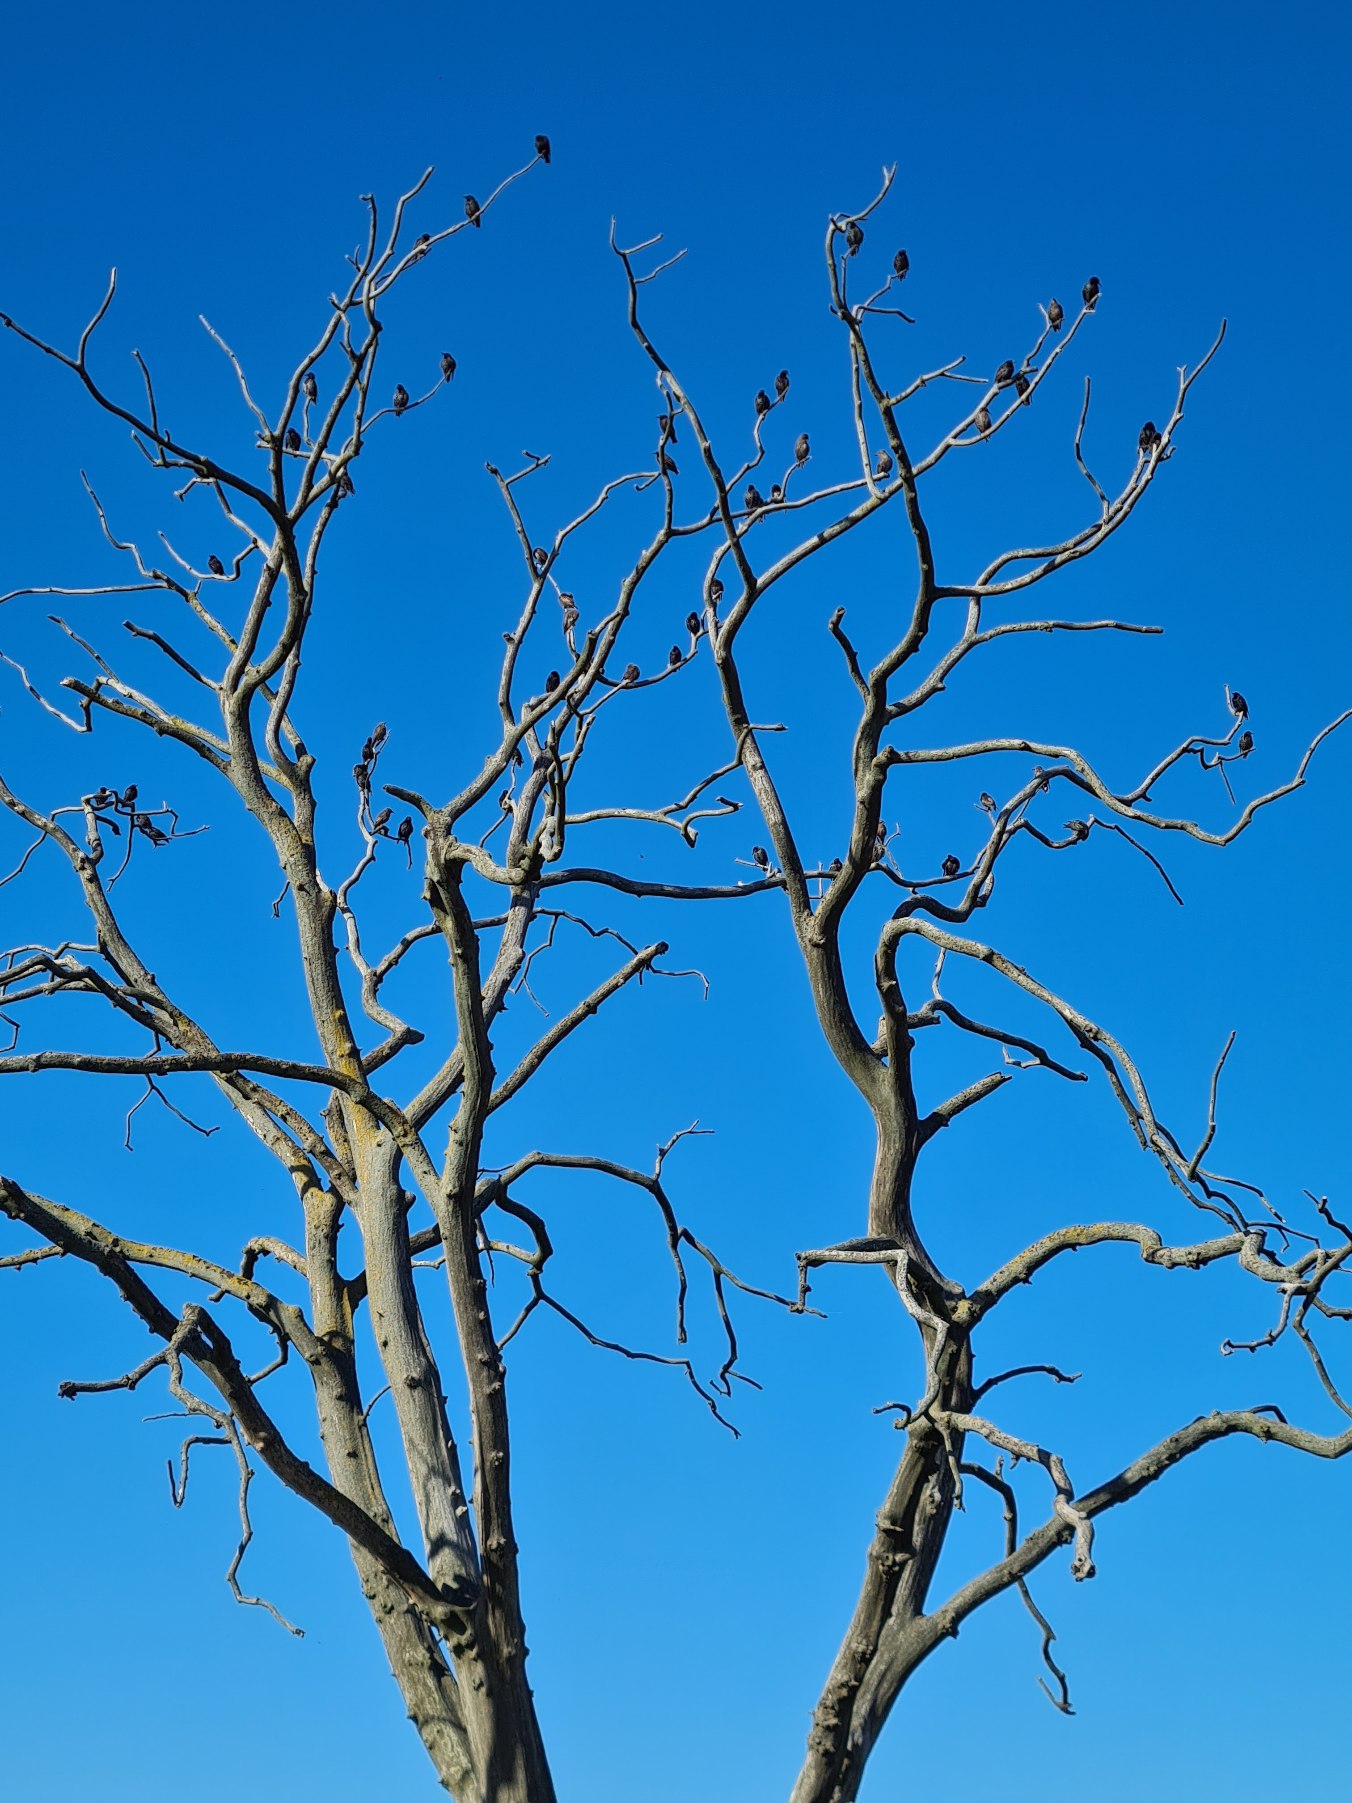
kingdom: Animalia
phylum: Chordata
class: Aves
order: Passeriformes
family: Sturnidae
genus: Sturnus
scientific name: Sturnus vulgaris
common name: Stær
